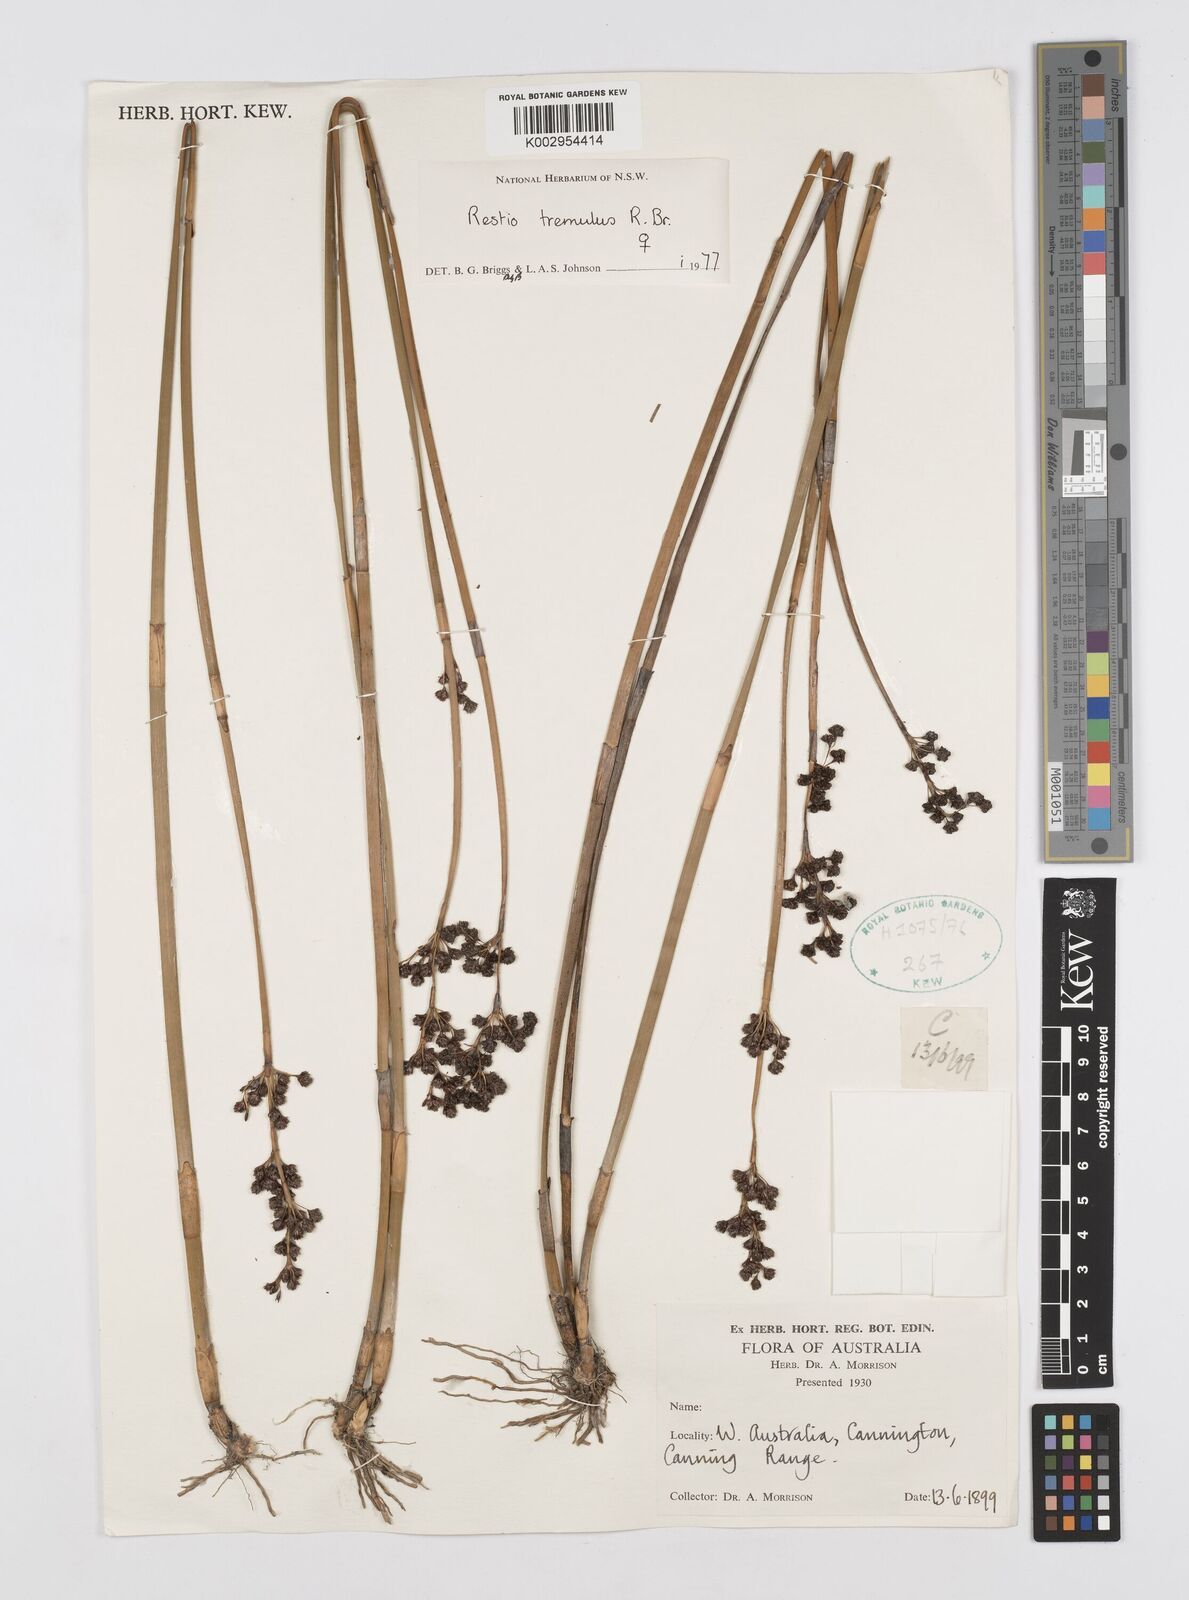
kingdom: Plantae
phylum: Tracheophyta
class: Liliopsida
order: Poales
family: Restionaceae
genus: Tremulina
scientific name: Tremulina tremula
